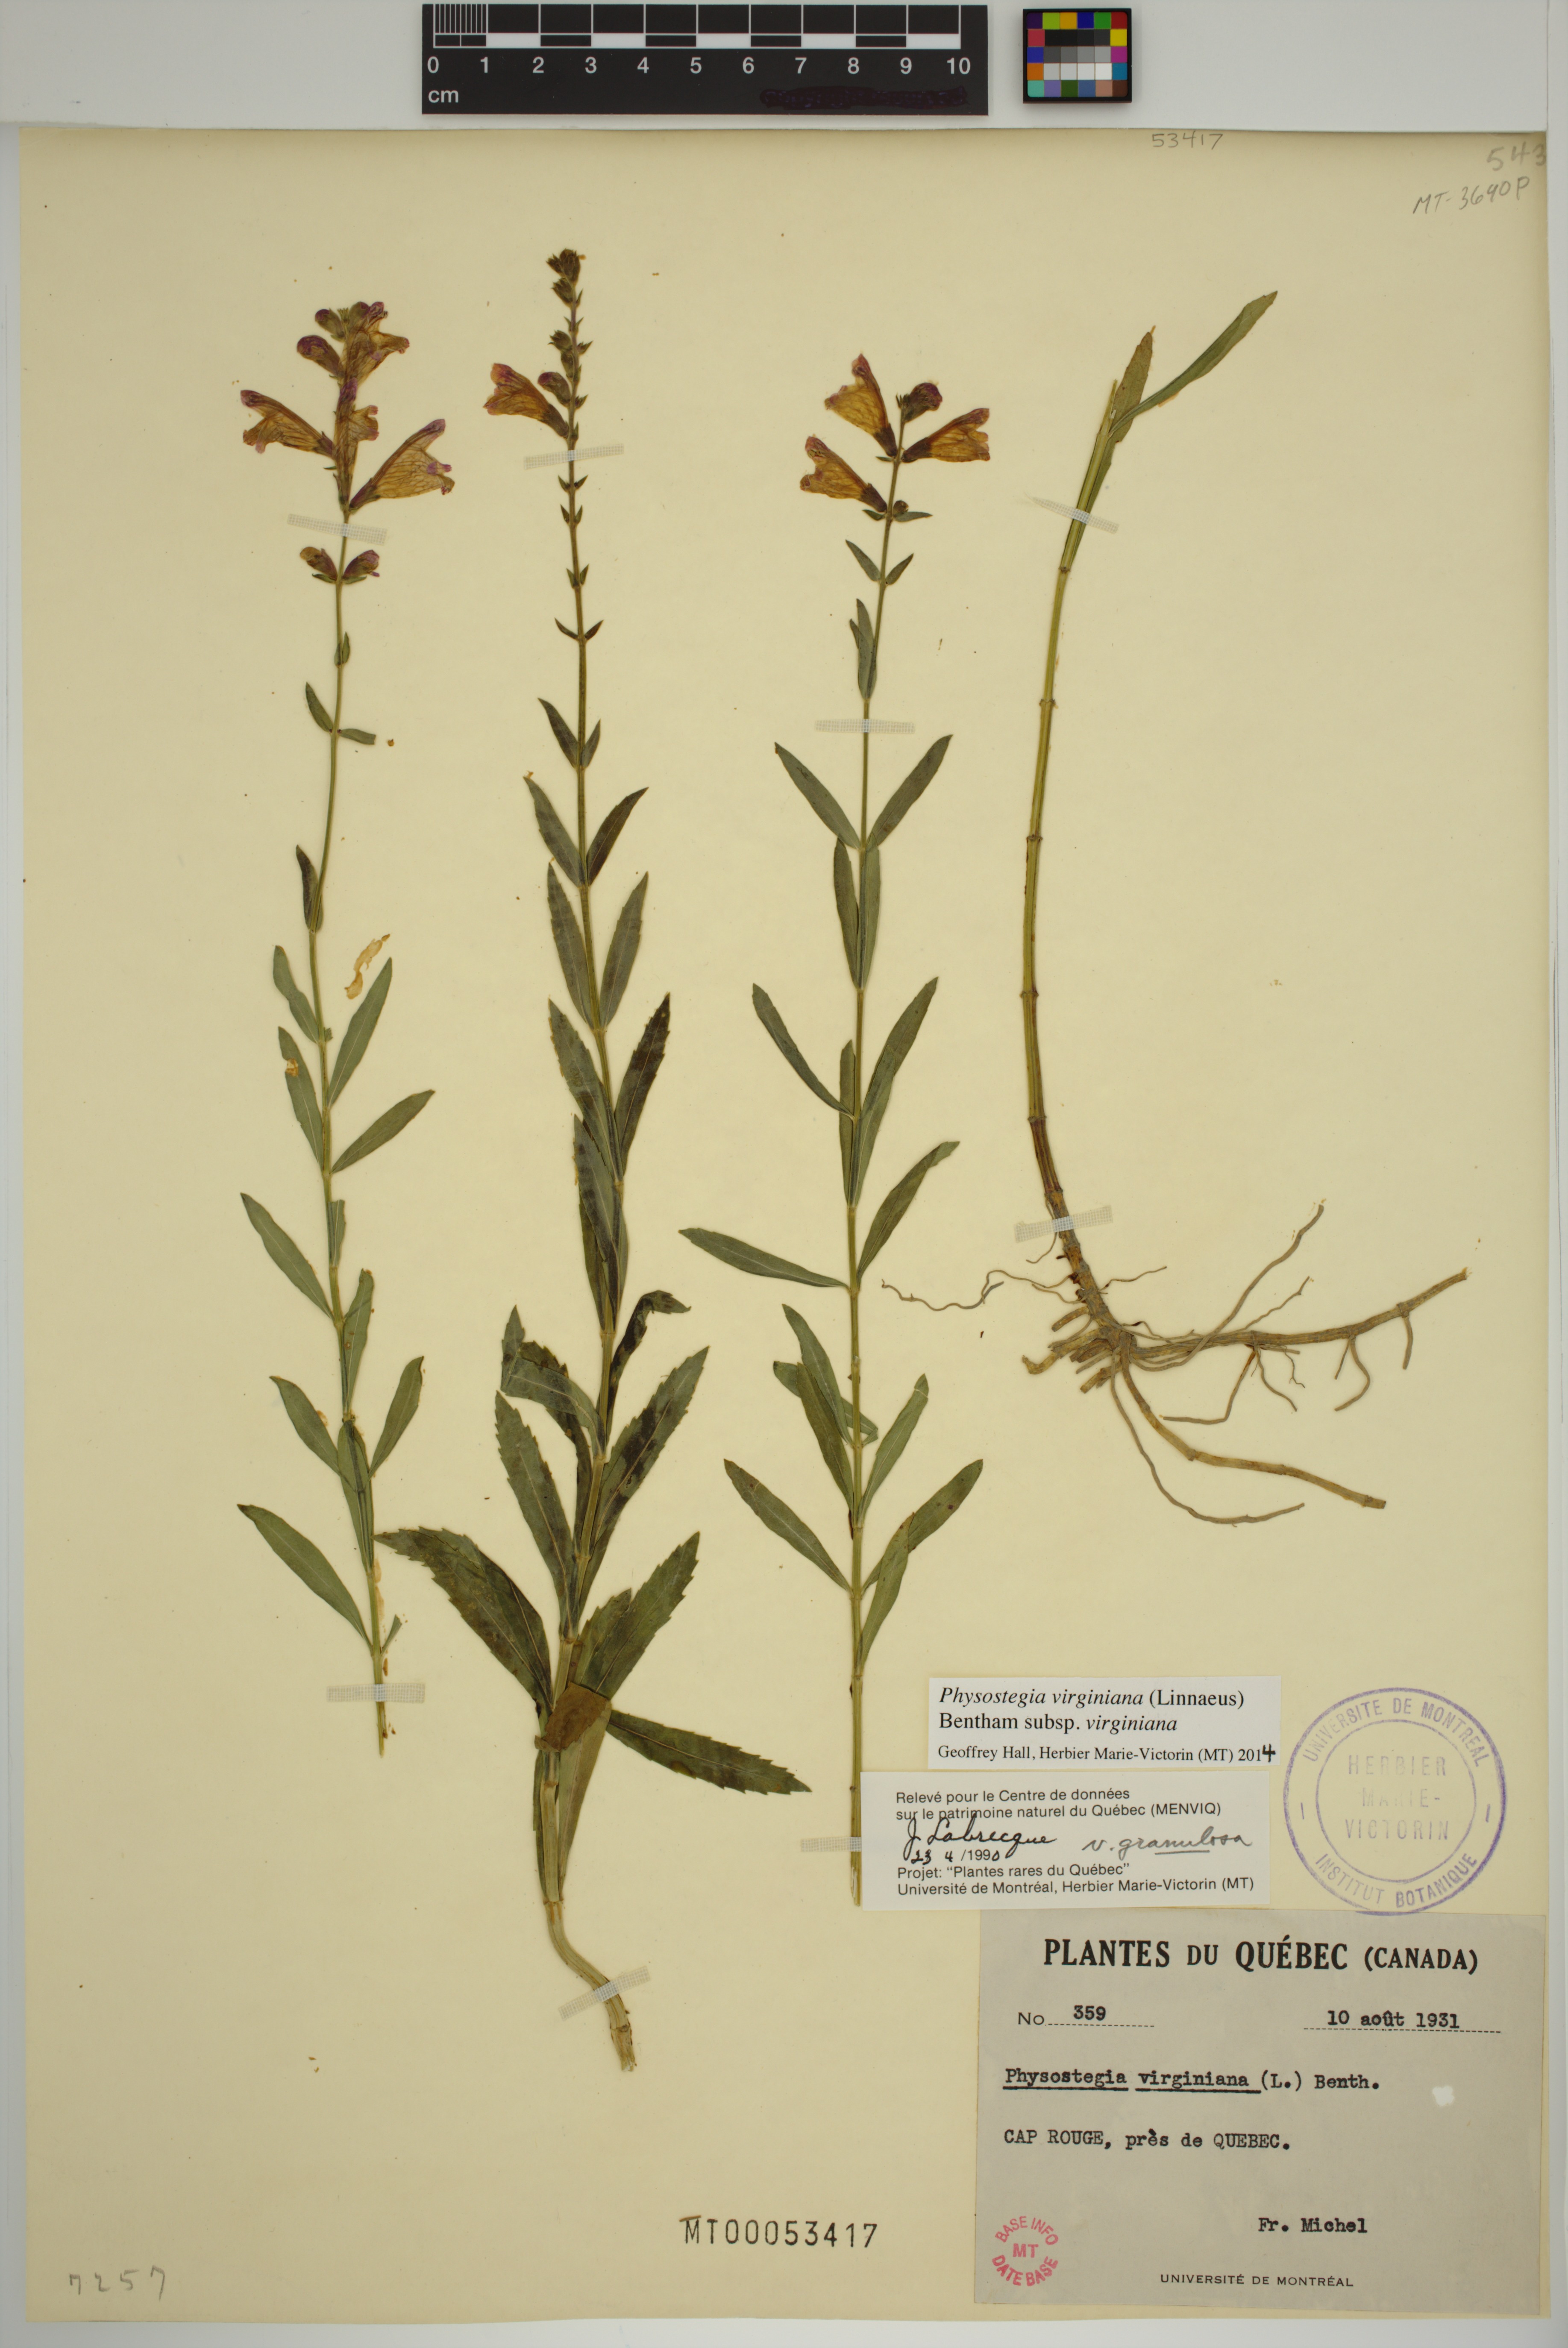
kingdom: Plantae
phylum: Tracheophyta
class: Magnoliopsida
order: Lamiales
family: Lamiaceae
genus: Physostegia
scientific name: Physostegia virginiana
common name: Obedient-plant
